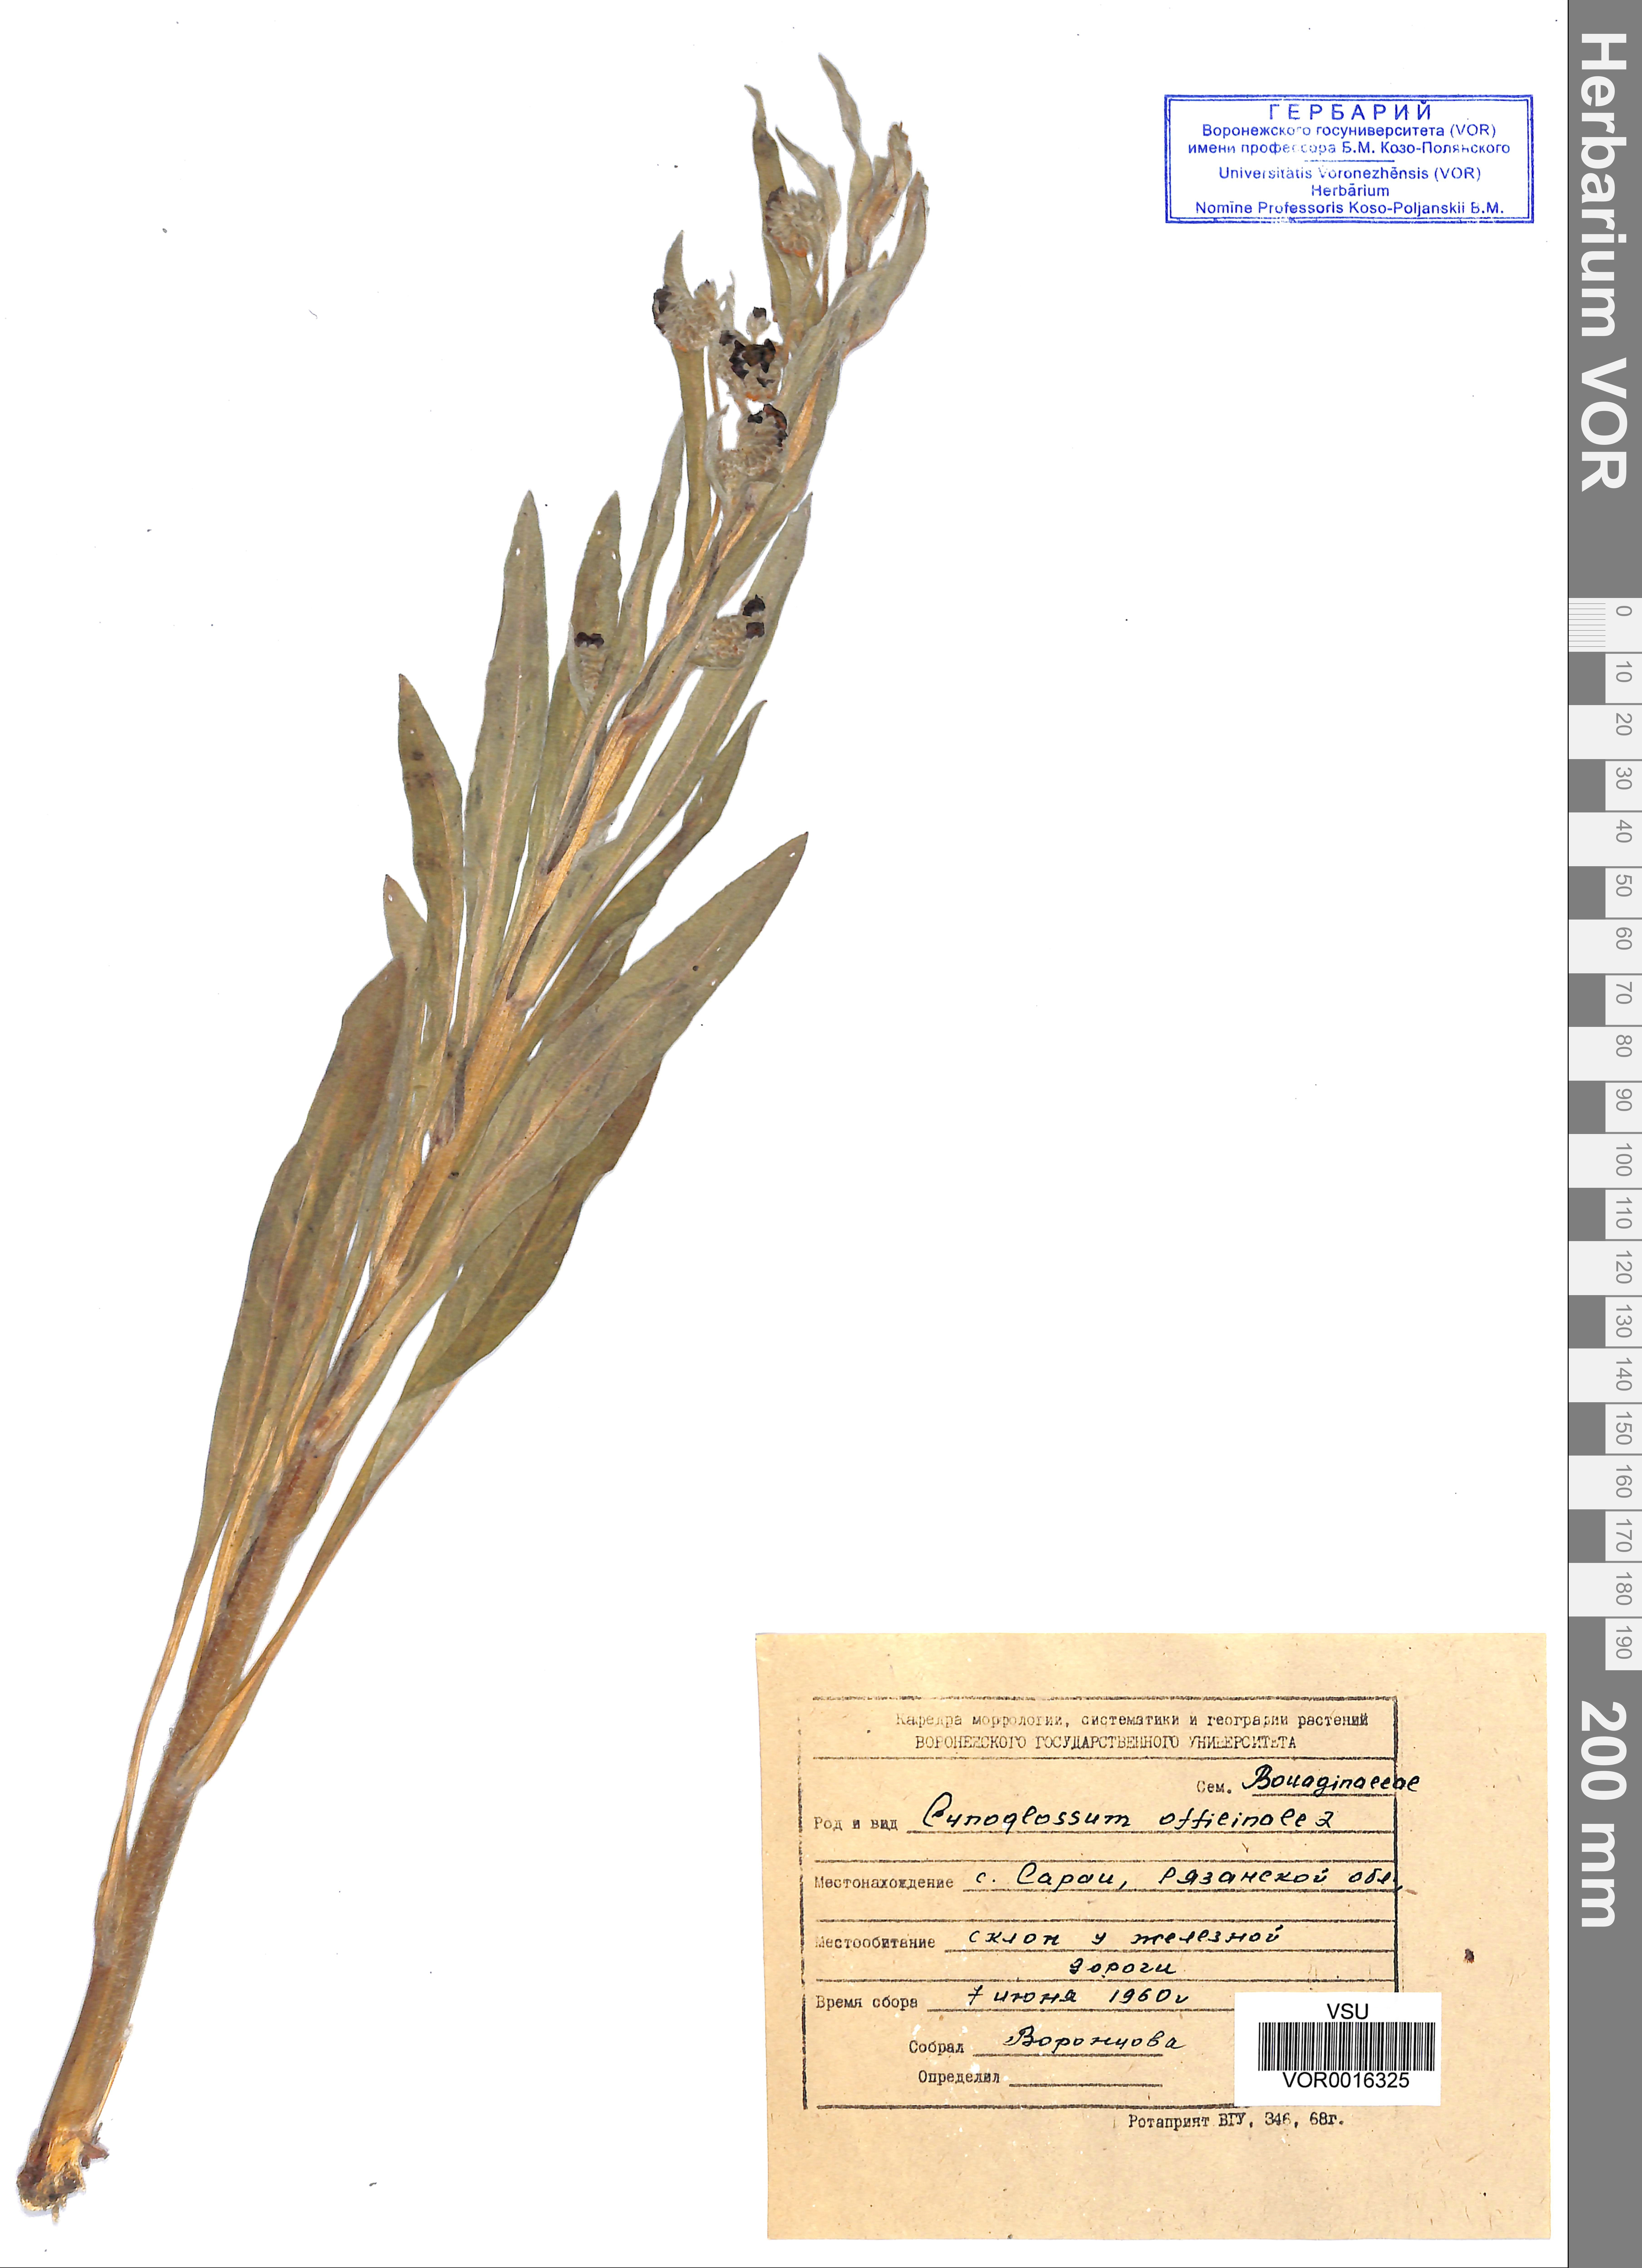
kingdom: Plantae
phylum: Tracheophyta
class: Magnoliopsida
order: Boraginales
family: Boraginaceae
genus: Cynoglossum
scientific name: Cynoglossum officinale
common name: Hound's-tongue
